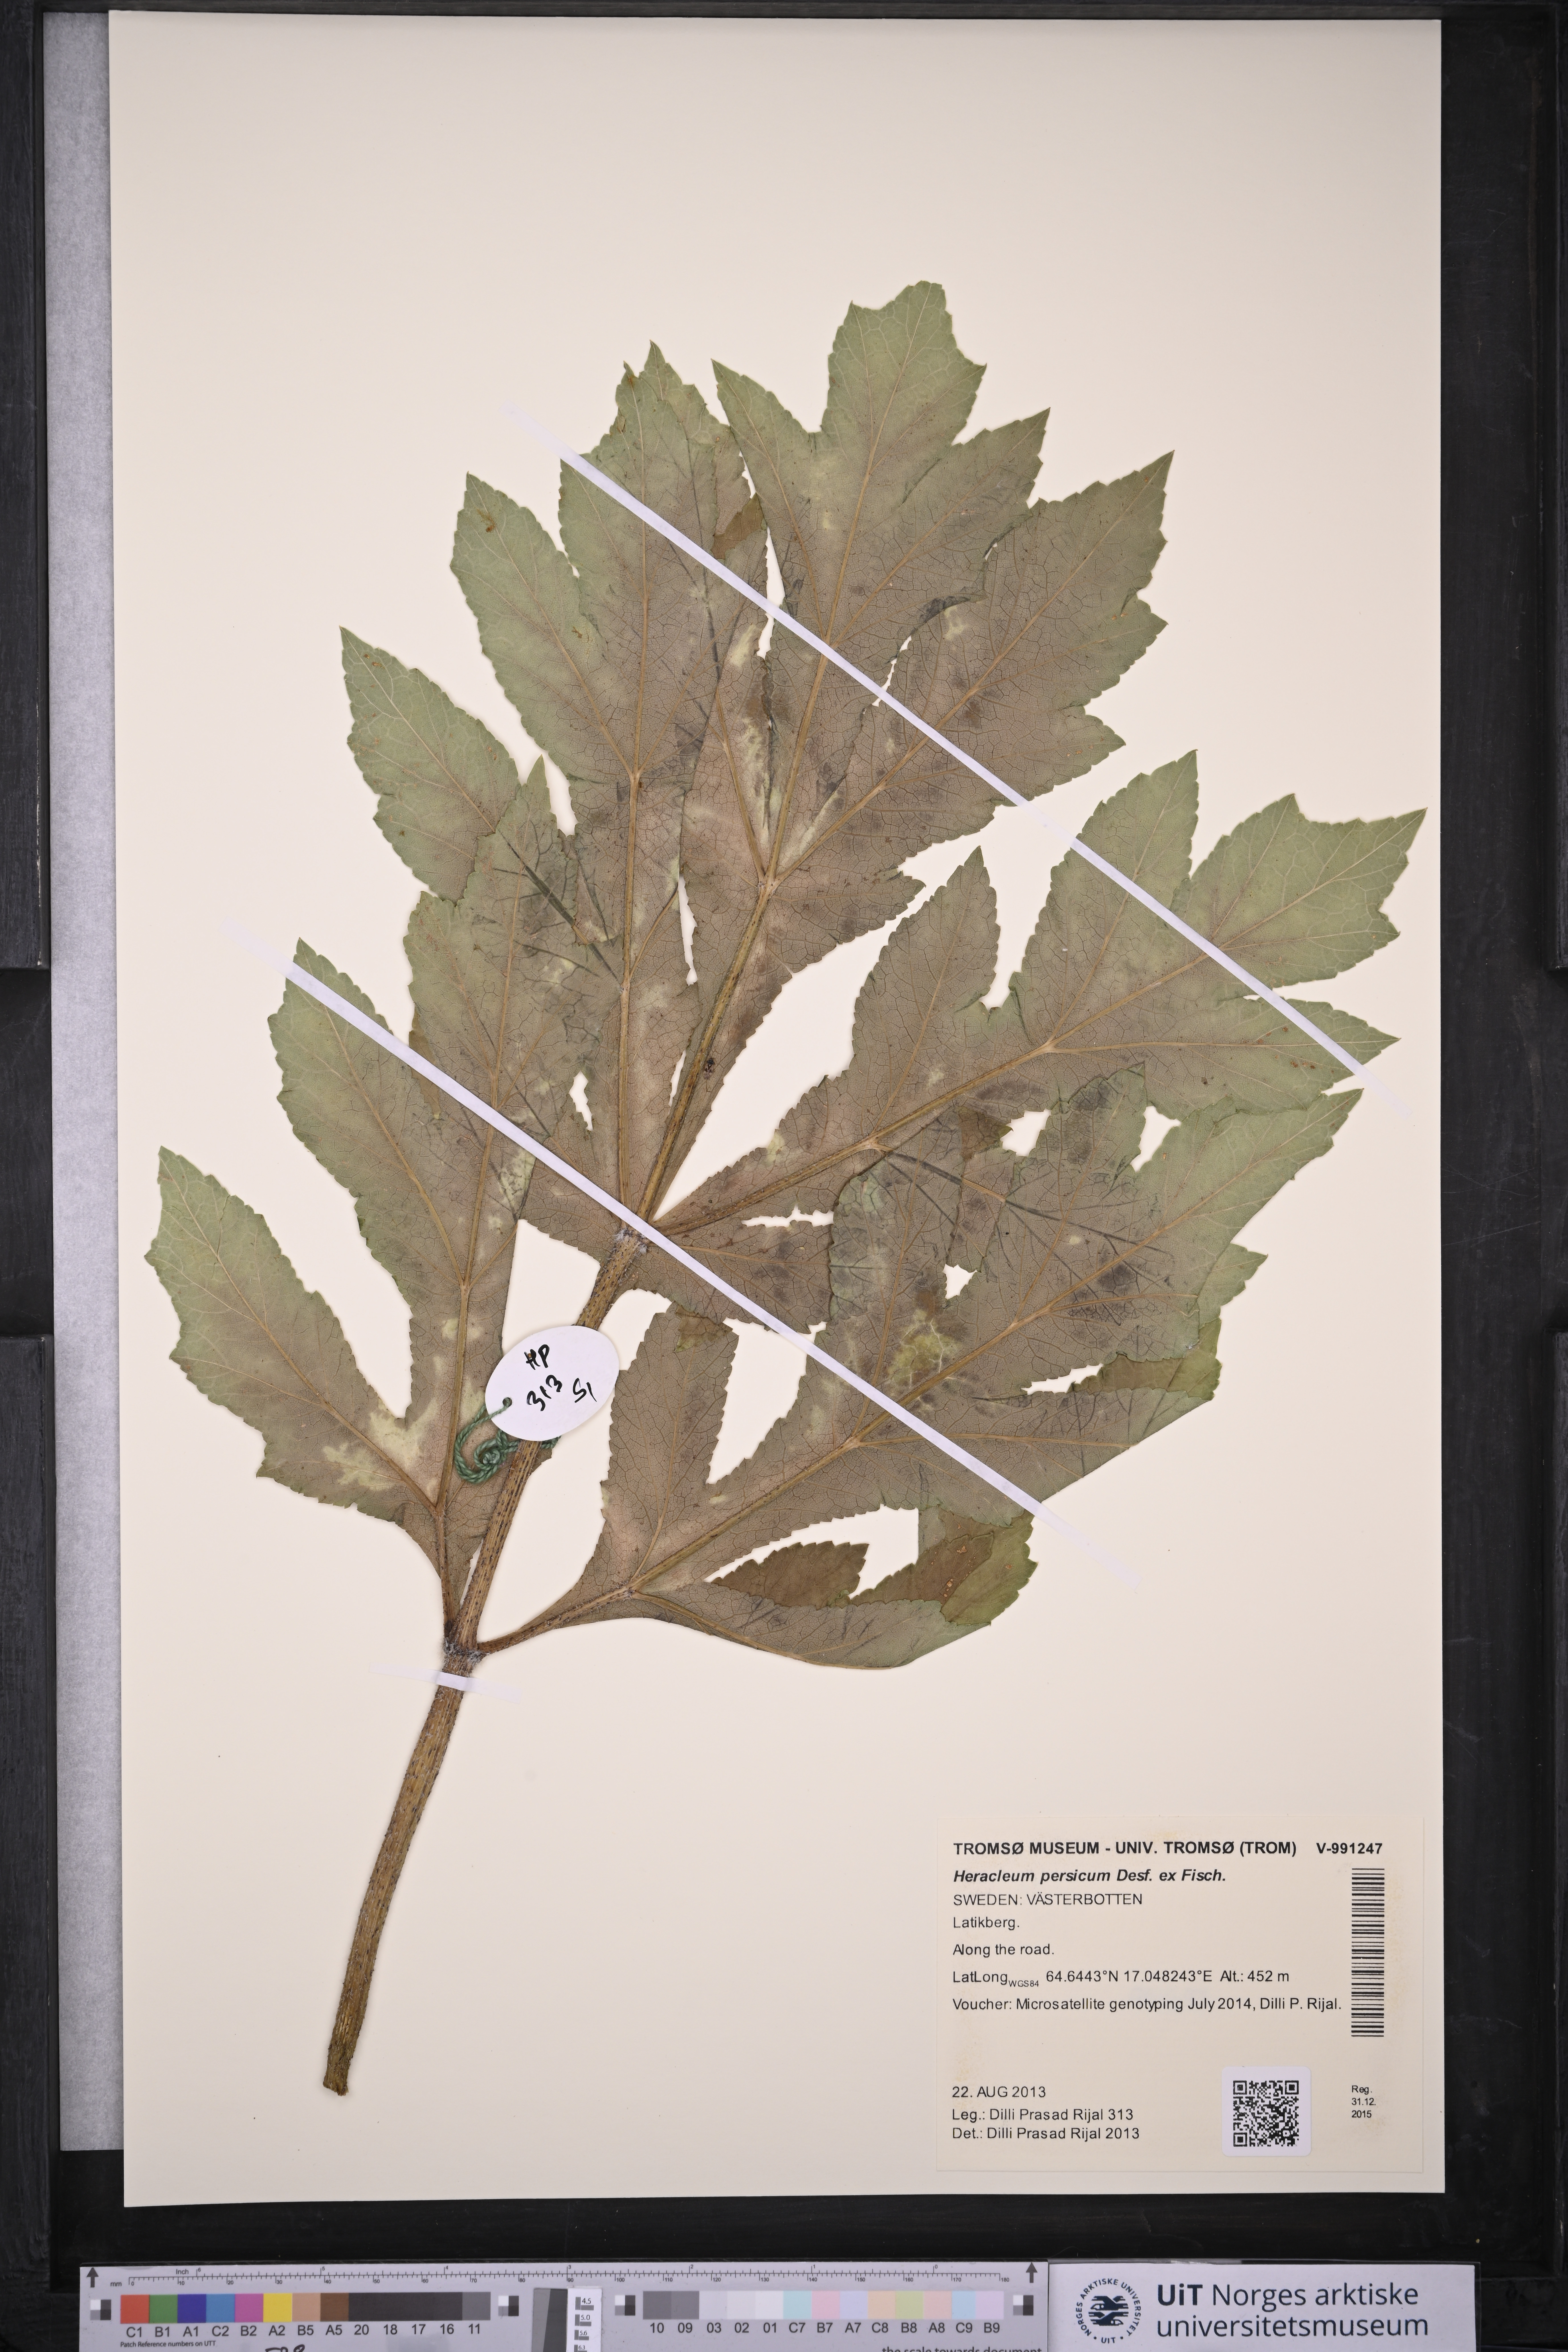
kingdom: Plantae
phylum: Tracheophyta
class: Magnoliopsida
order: Apiales
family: Apiaceae
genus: Heracleum
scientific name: Heracleum persicum
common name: Persian hogweed
